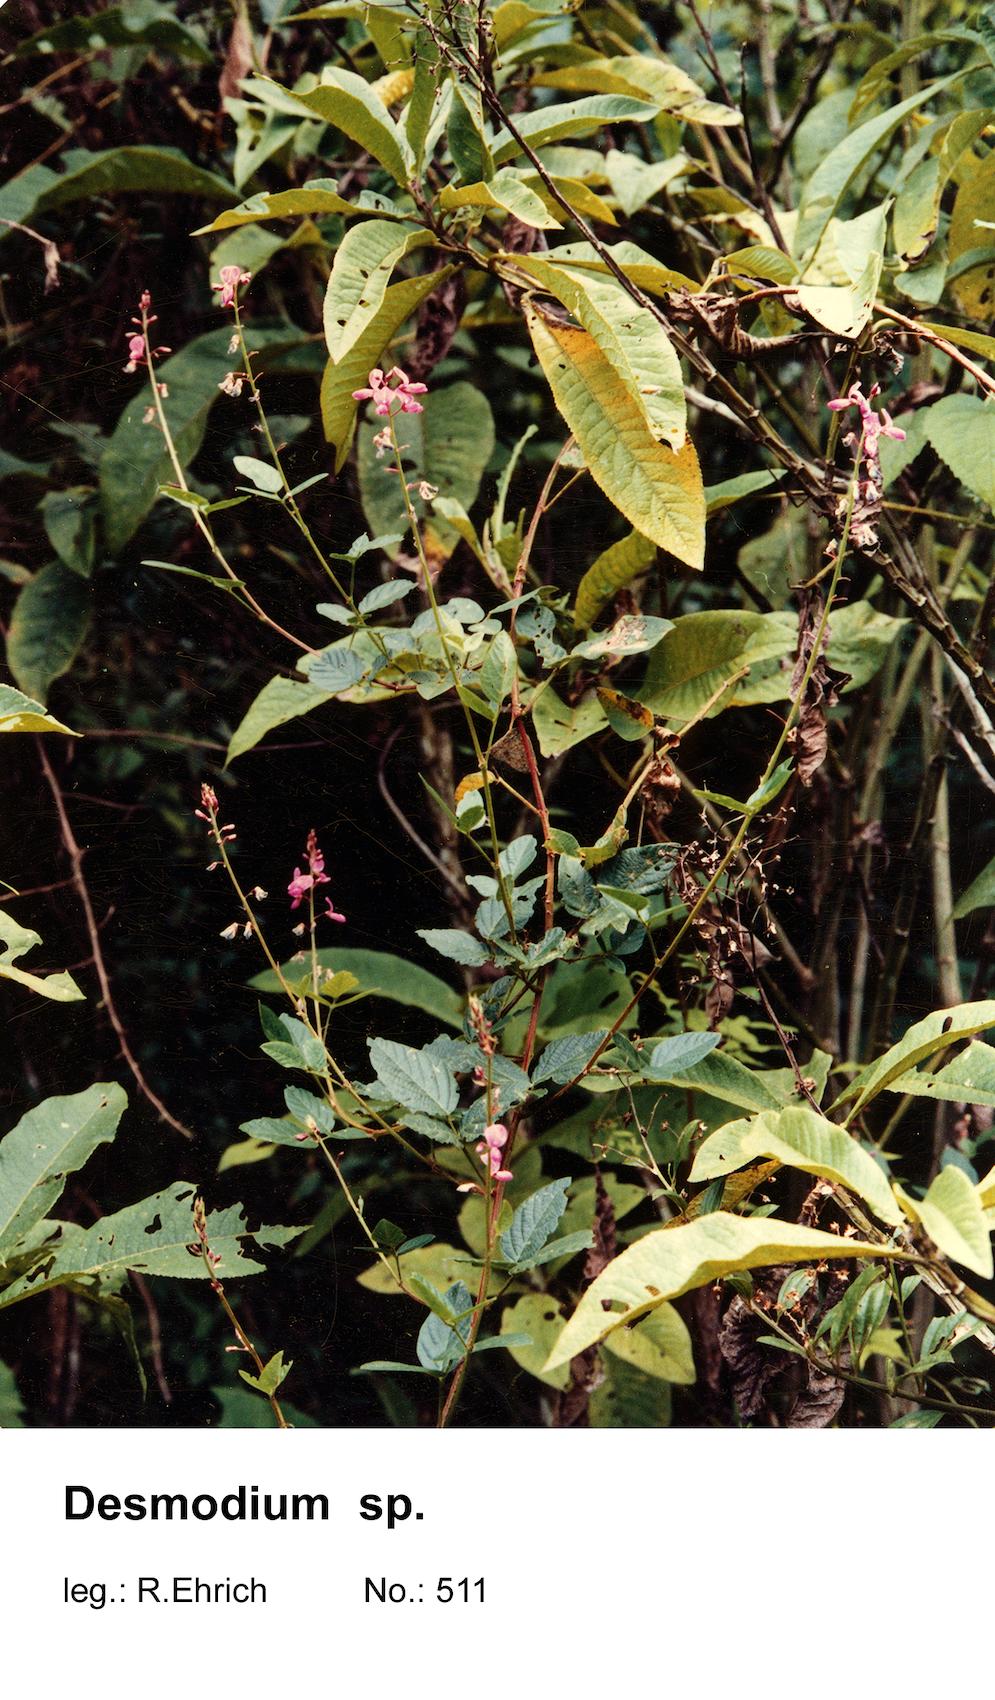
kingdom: Plantae
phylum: Tracheophyta
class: Magnoliopsida
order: Fabales
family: Fabaceae
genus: Desmodium
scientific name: Desmodium
